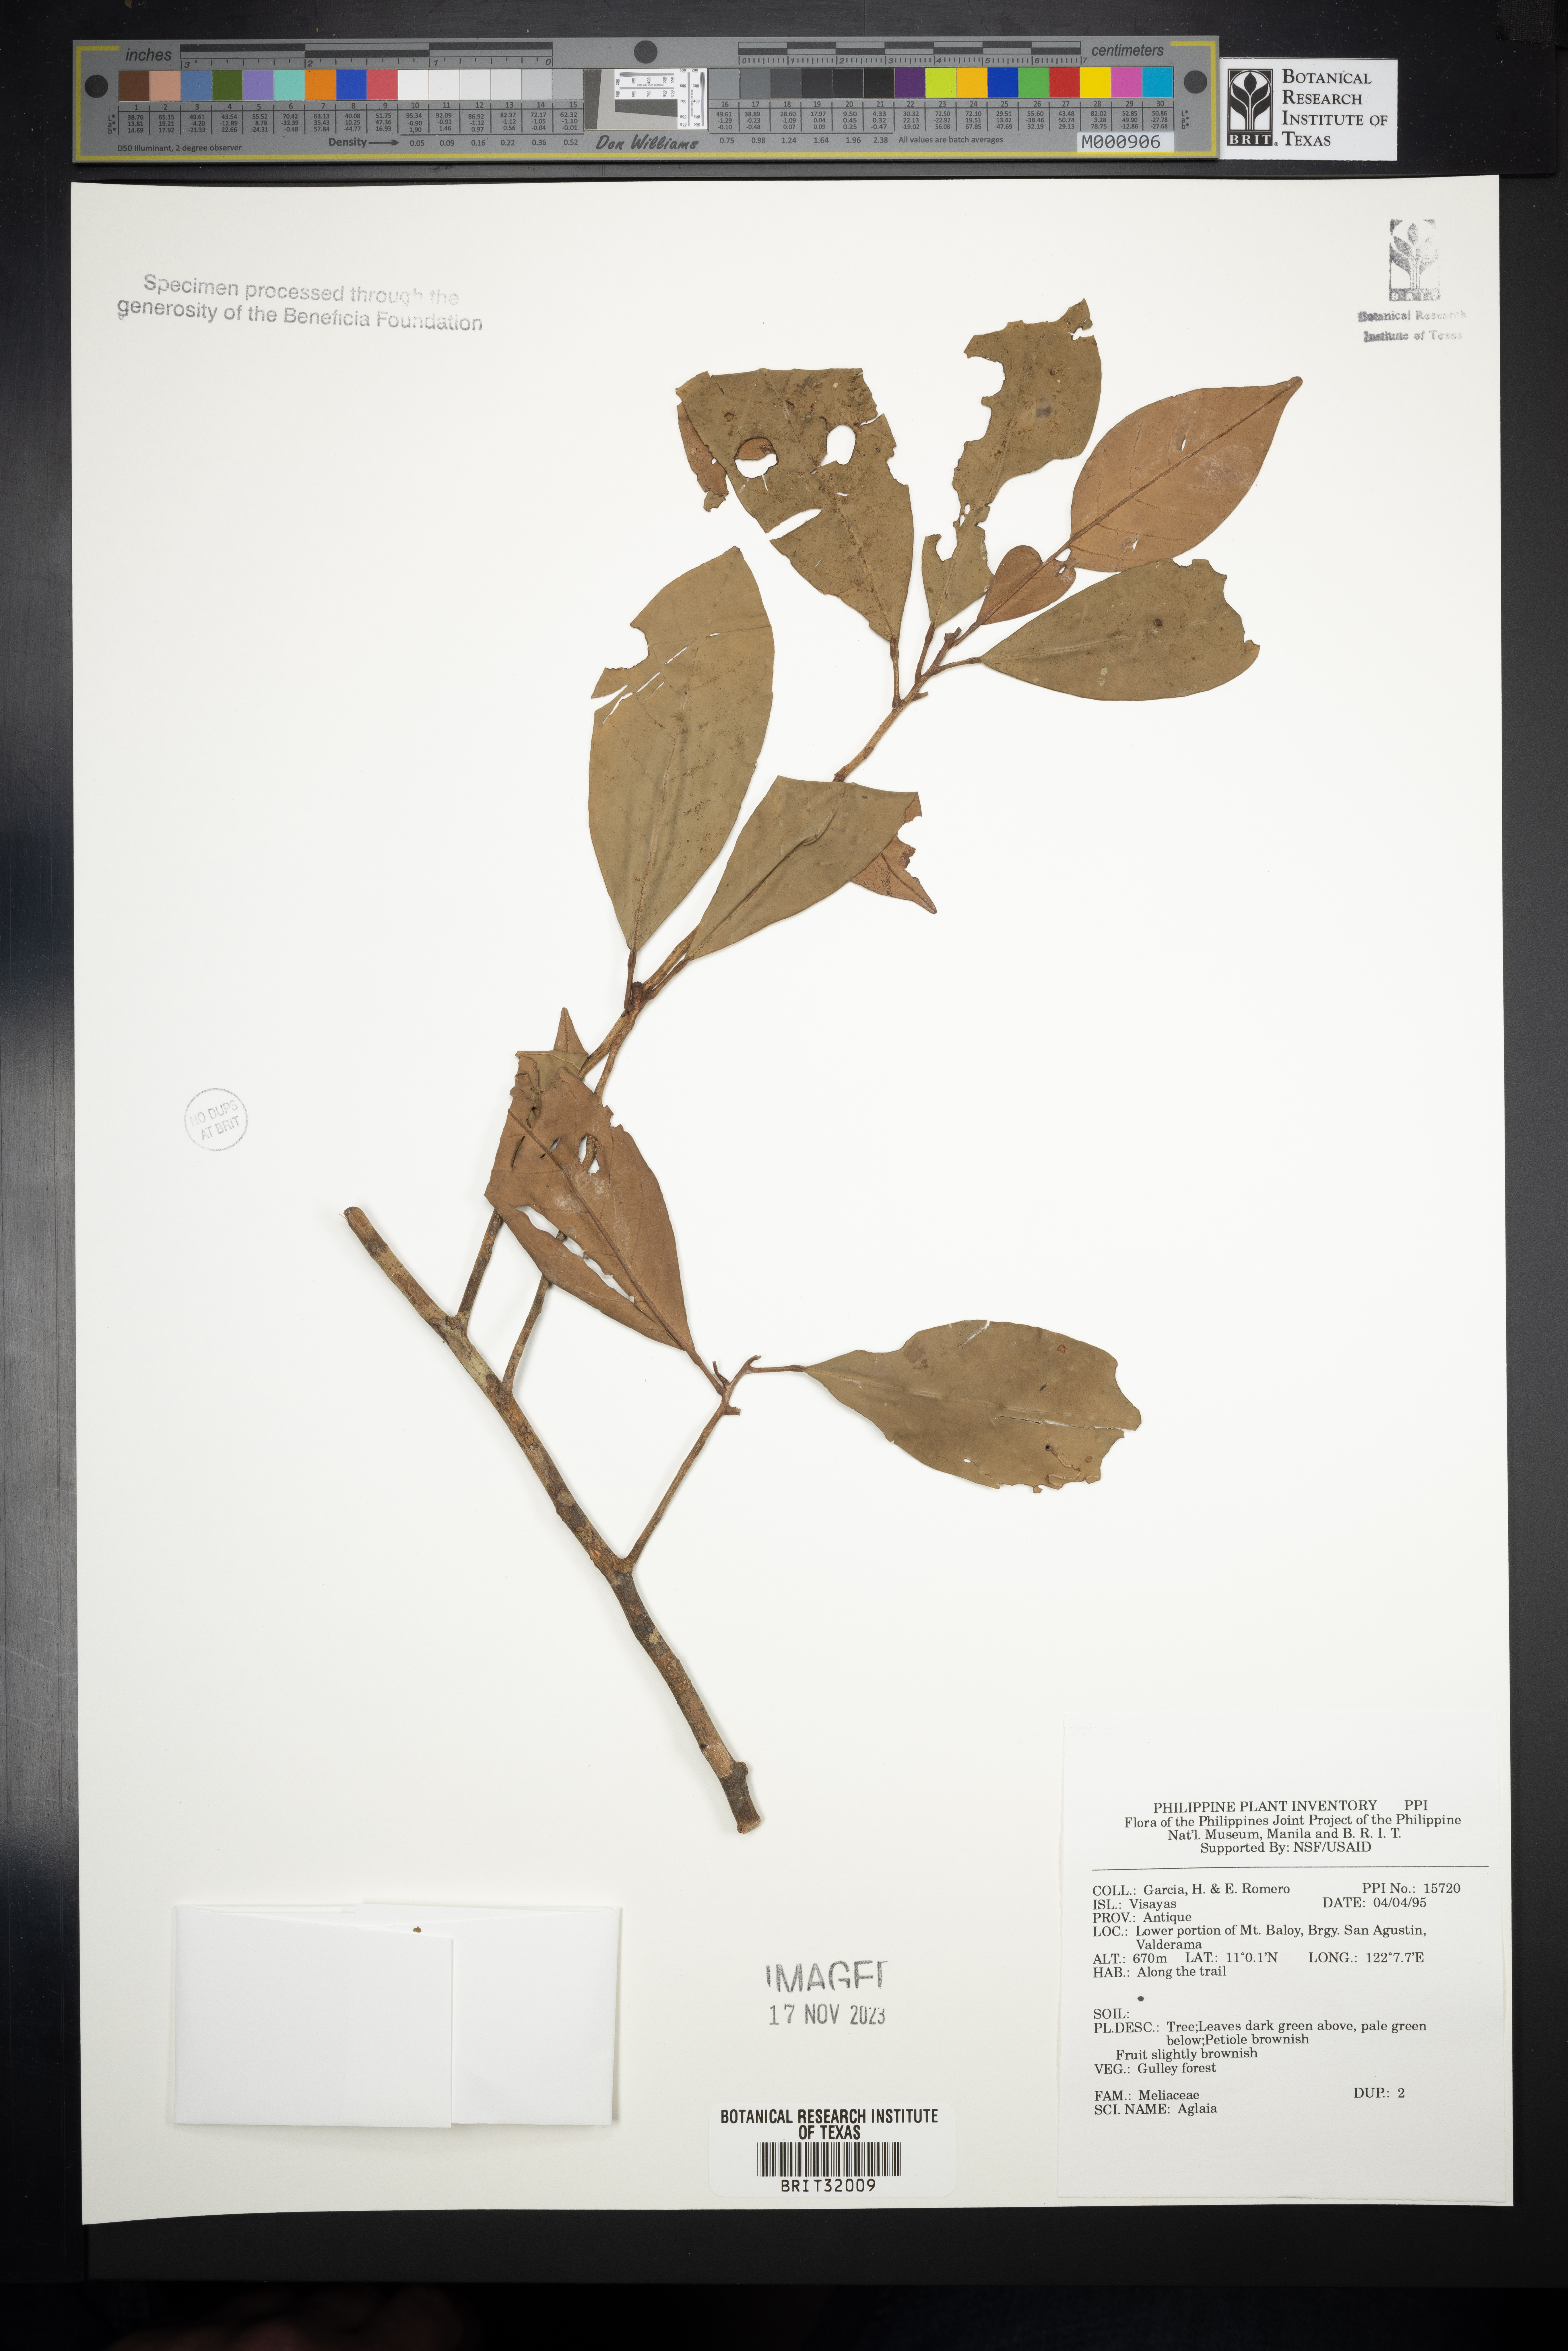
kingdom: Plantae
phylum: Tracheophyta
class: Magnoliopsida
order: Sapindales
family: Meliaceae
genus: Aglaia
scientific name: Aglaia
